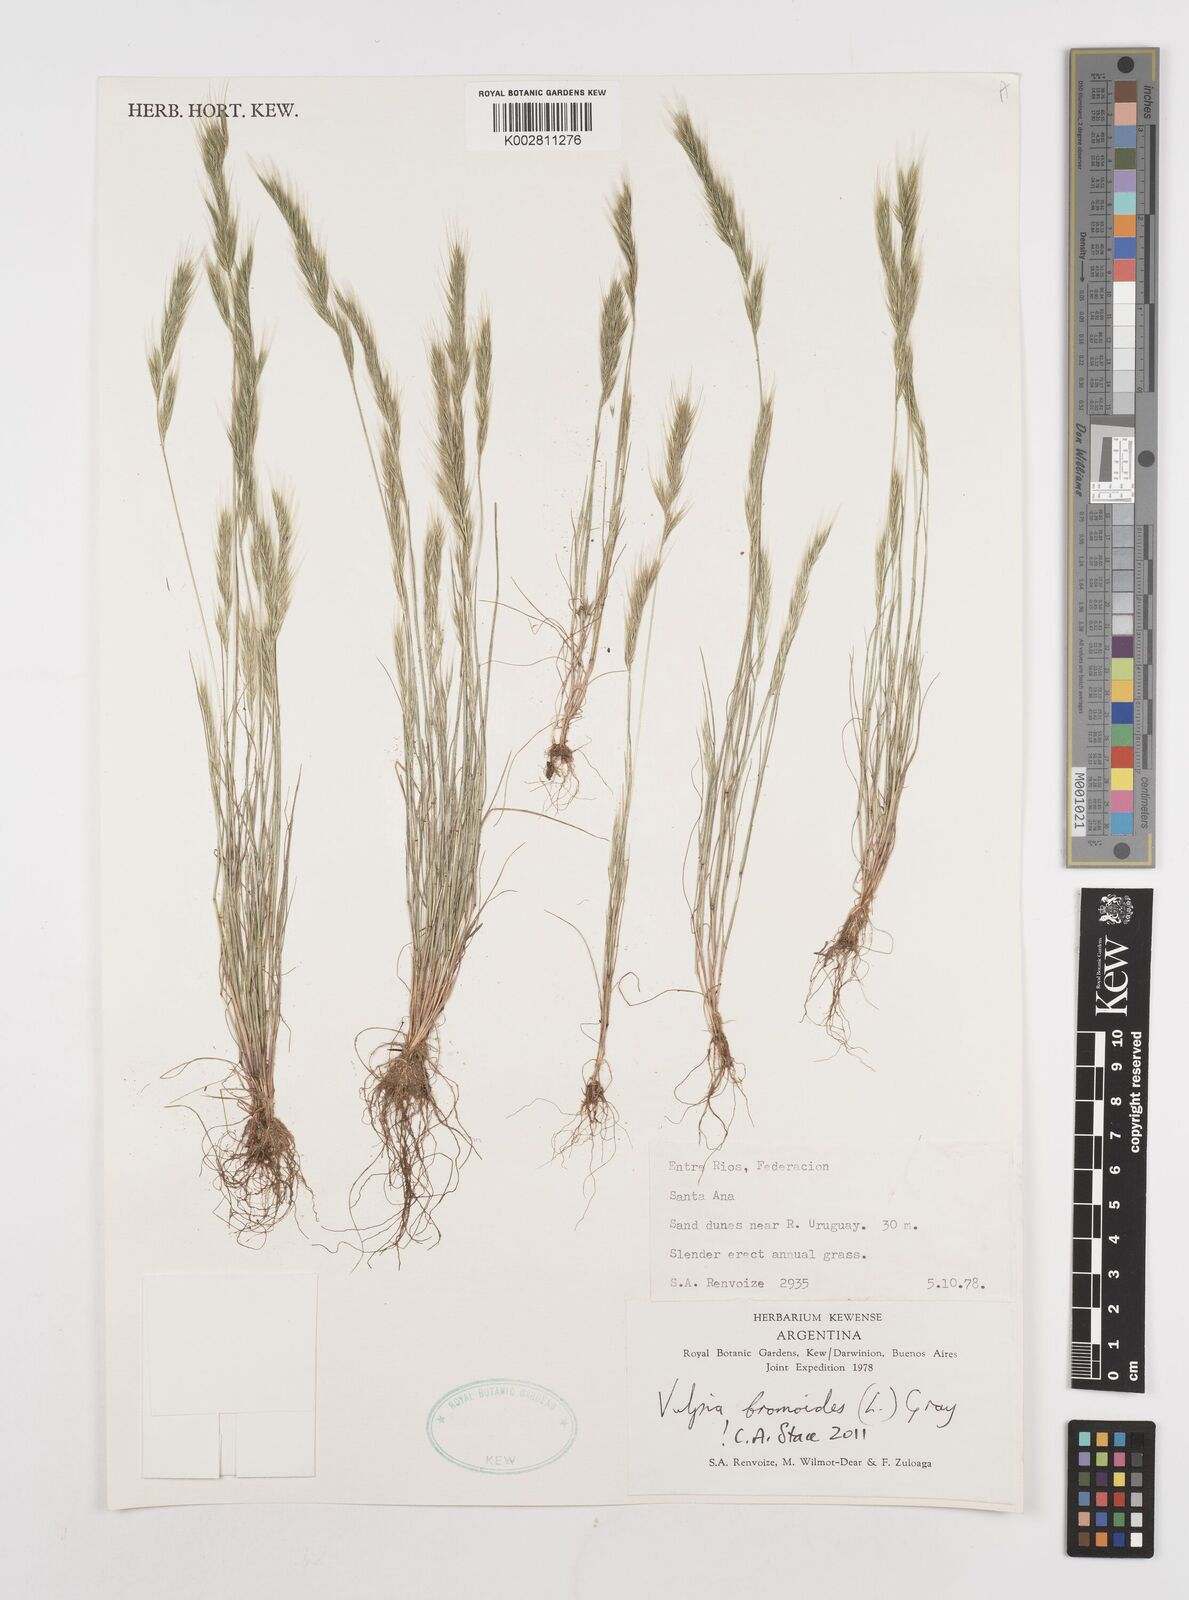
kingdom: Plantae
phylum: Tracheophyta
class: Liliopsida
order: Poales
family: Poaceae
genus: Festuca
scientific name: Festuca bromoides
